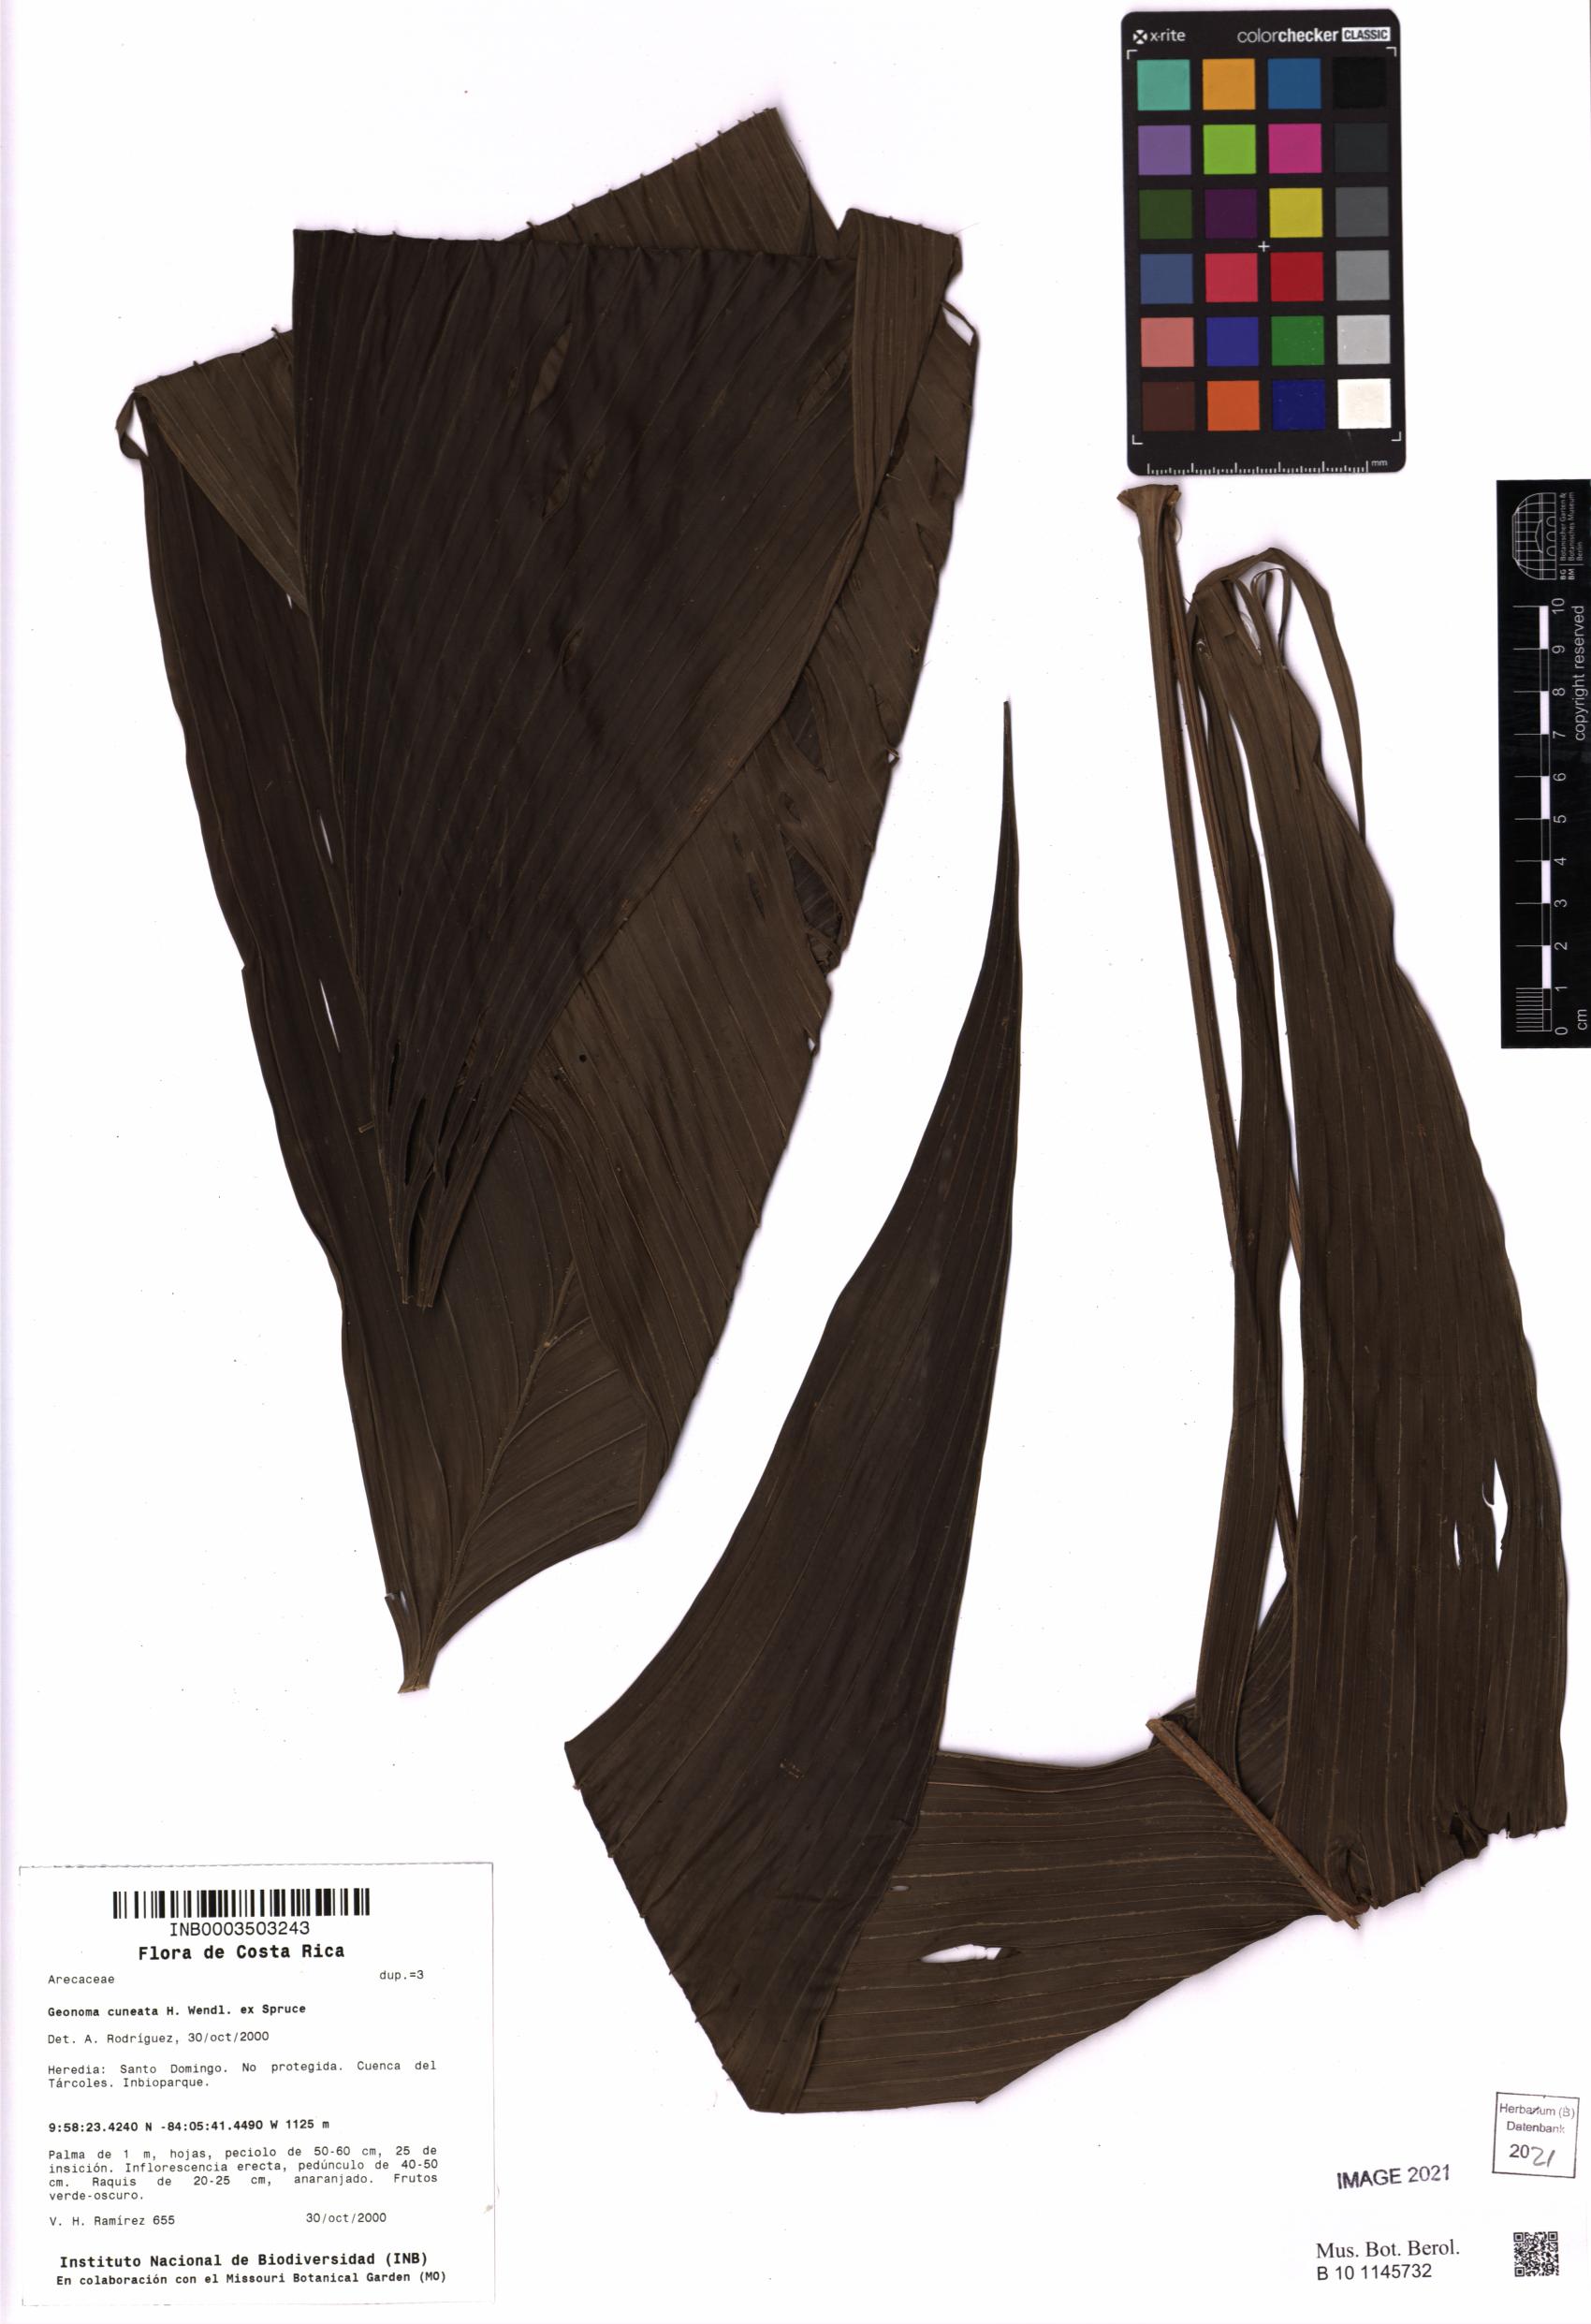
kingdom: Plantae
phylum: Tracheophyta
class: Liliopsida
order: Arecales
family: Arecaceae
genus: Geonoma
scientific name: Geonoma cuneata
